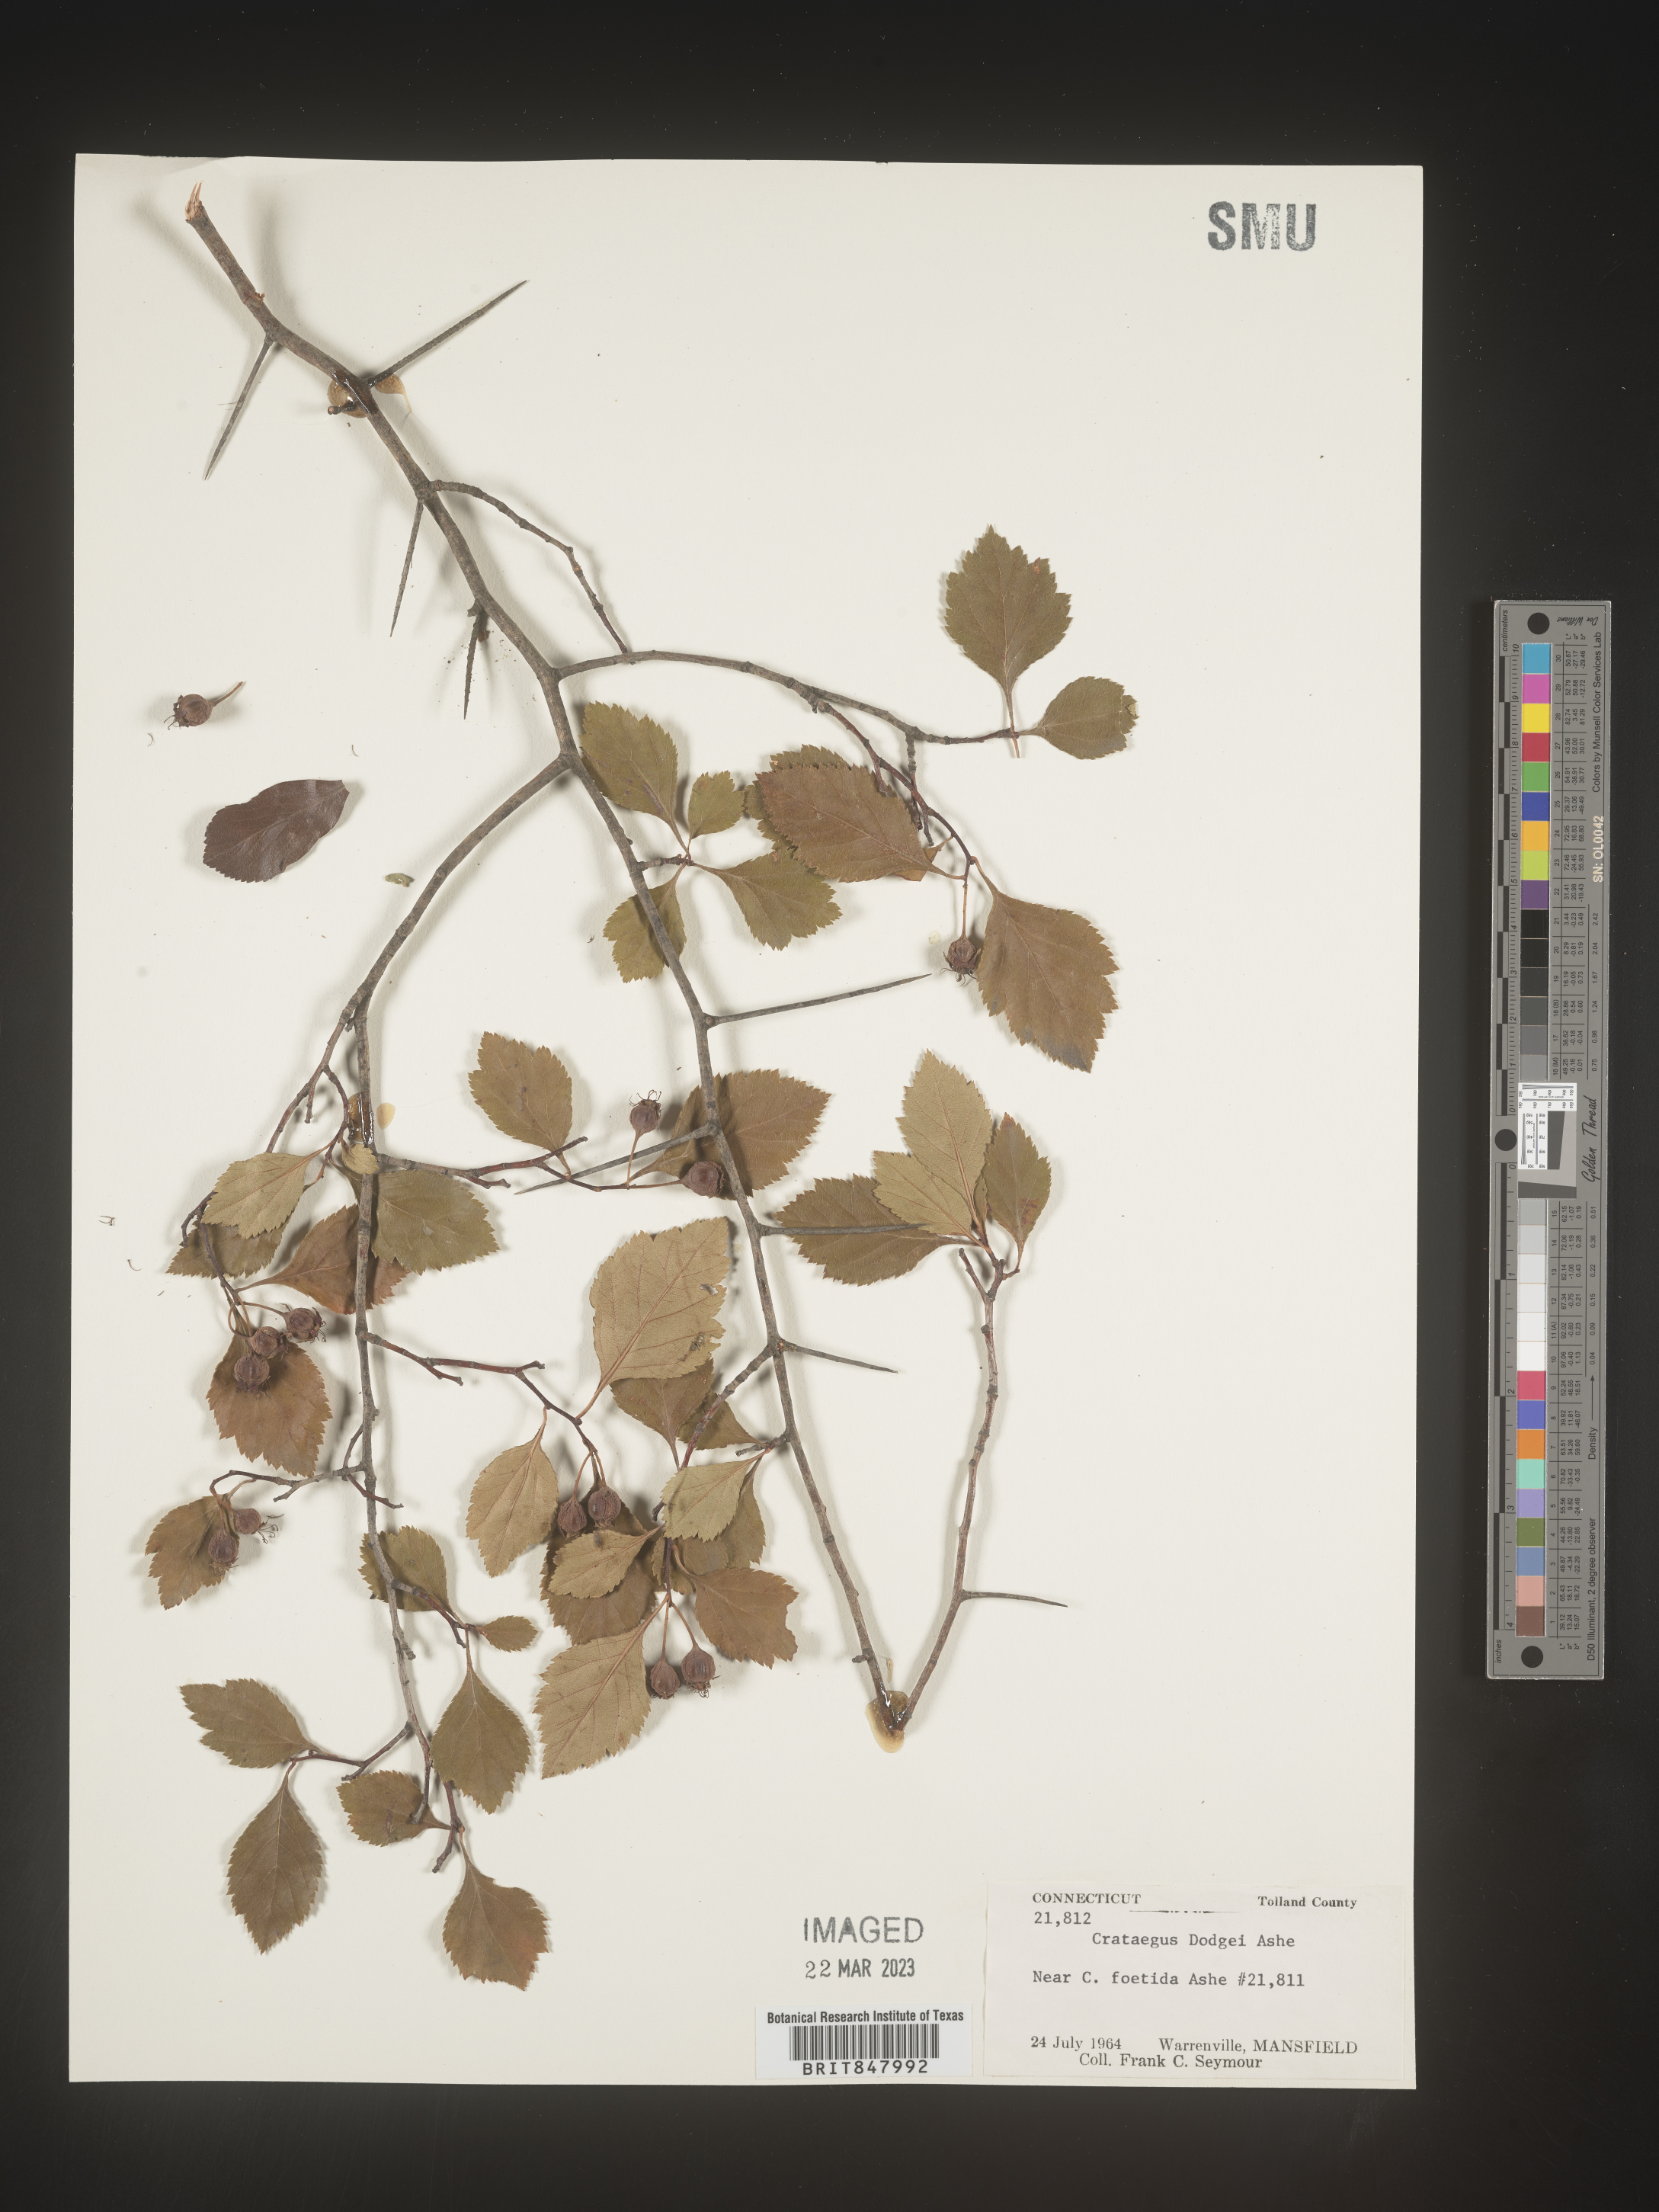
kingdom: Plantae
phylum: Tracheophyta
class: Magnoliopsida
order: Rosales
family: Rosaceae
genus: Crataegus
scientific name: Crataegus
